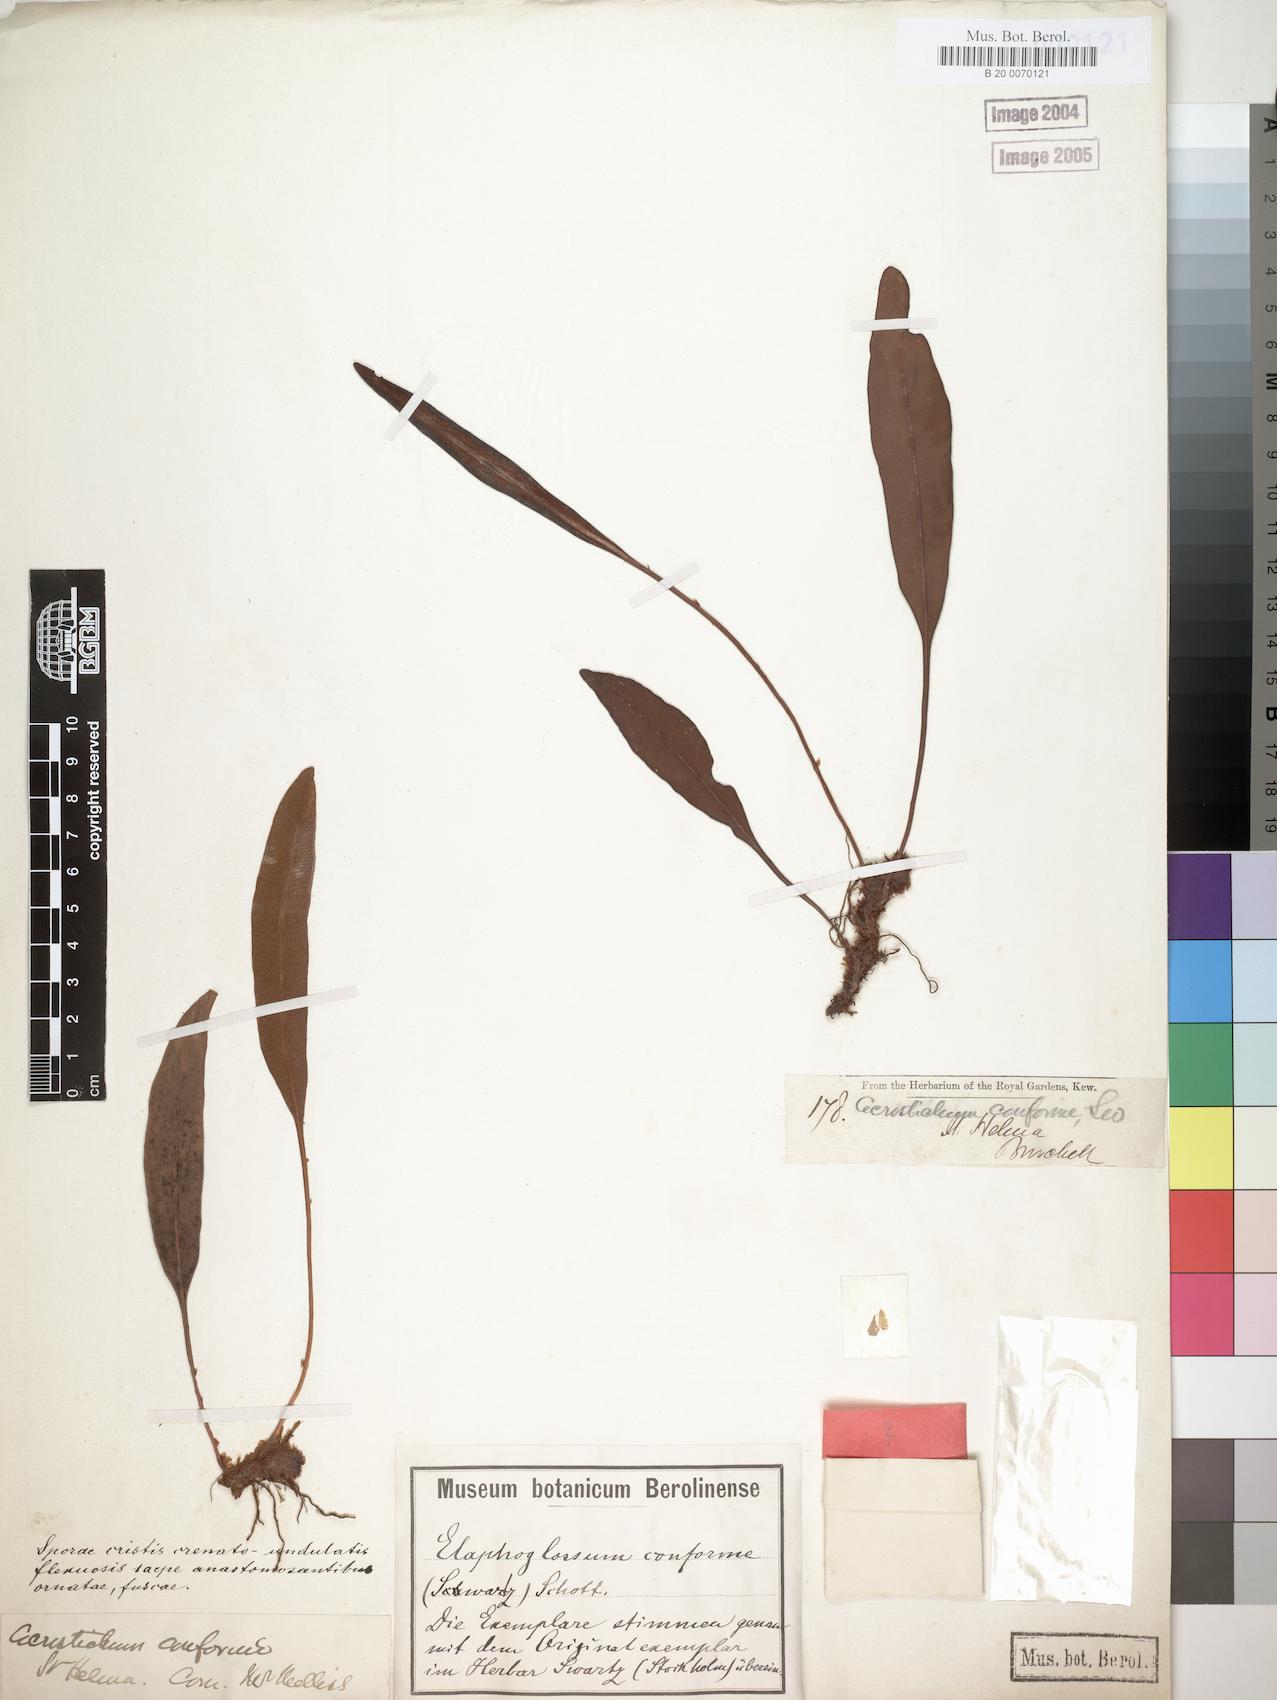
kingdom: Plantae
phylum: Tracheophyta
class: Polypodiopsida
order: Polypodiales
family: Dryopteridaceae
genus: Elaphoglossum
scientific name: Elaphoglossum conforme
